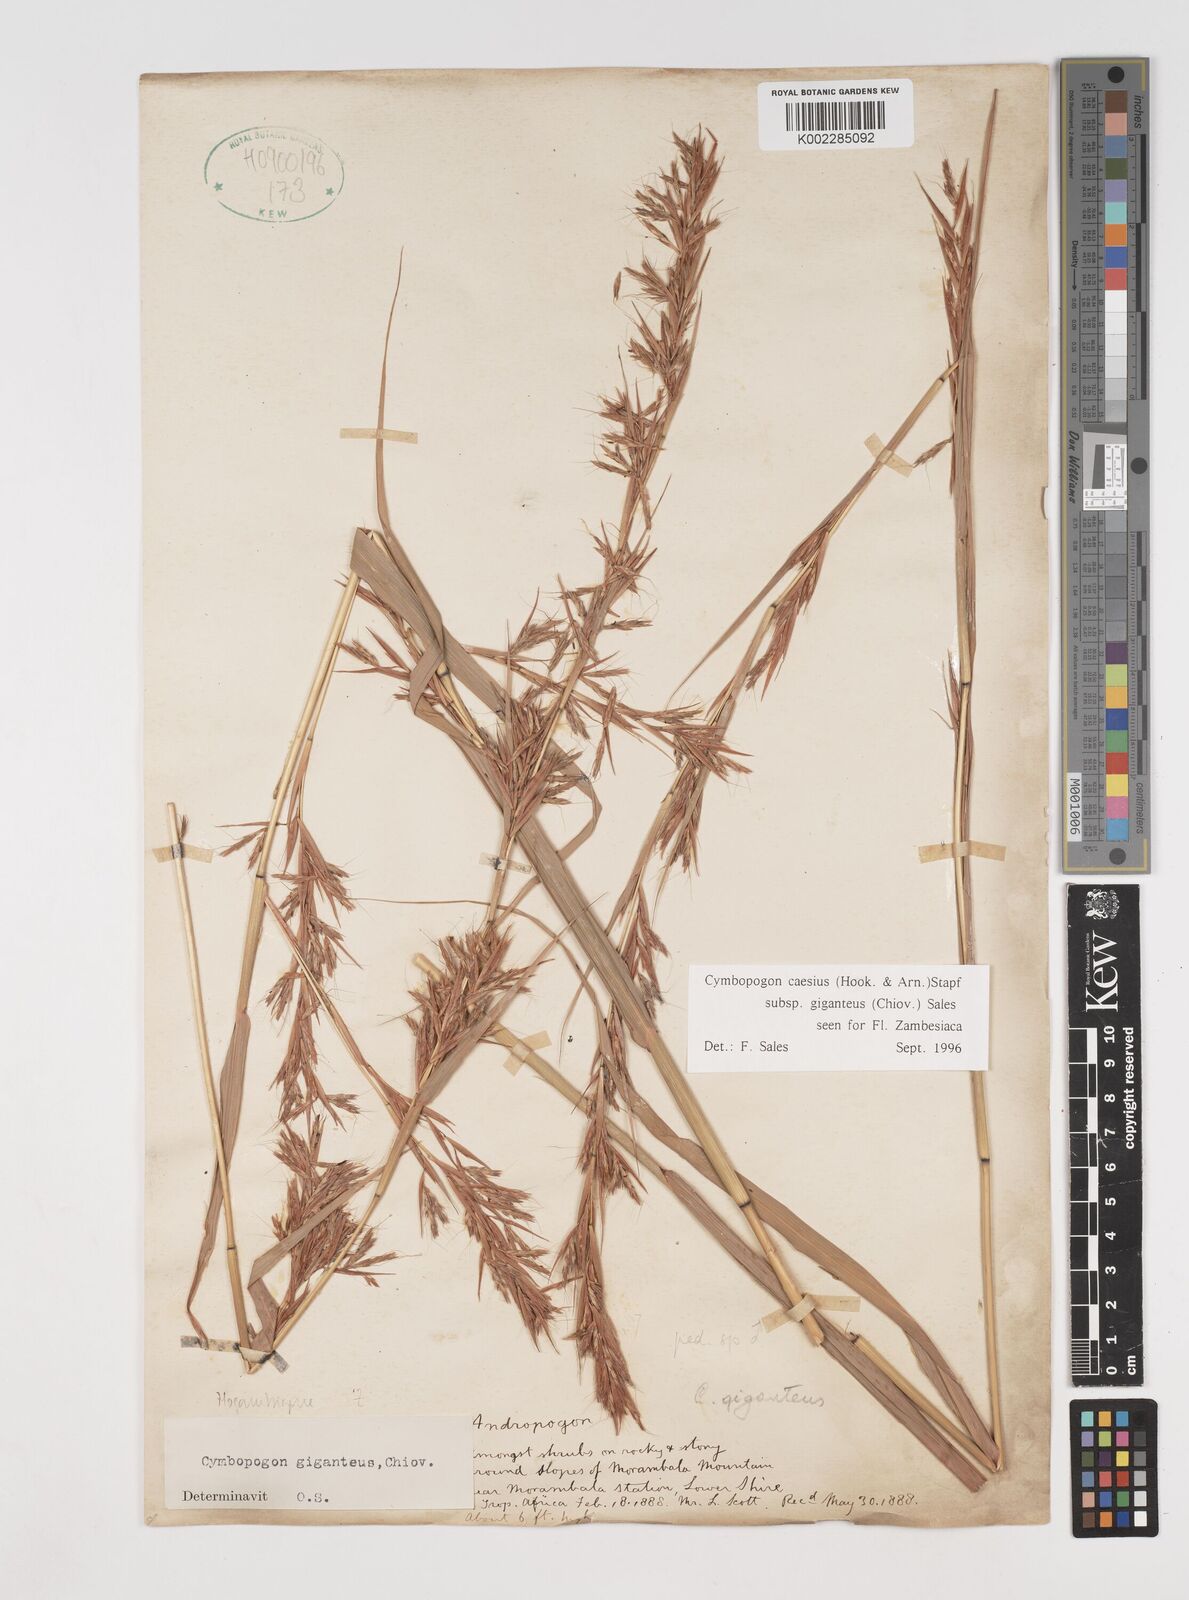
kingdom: Plantae
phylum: Tracheophyta
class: Liliopsida
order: Poales
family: Poaceae
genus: Cymbopogon
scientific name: Cymbopogon giganteus
